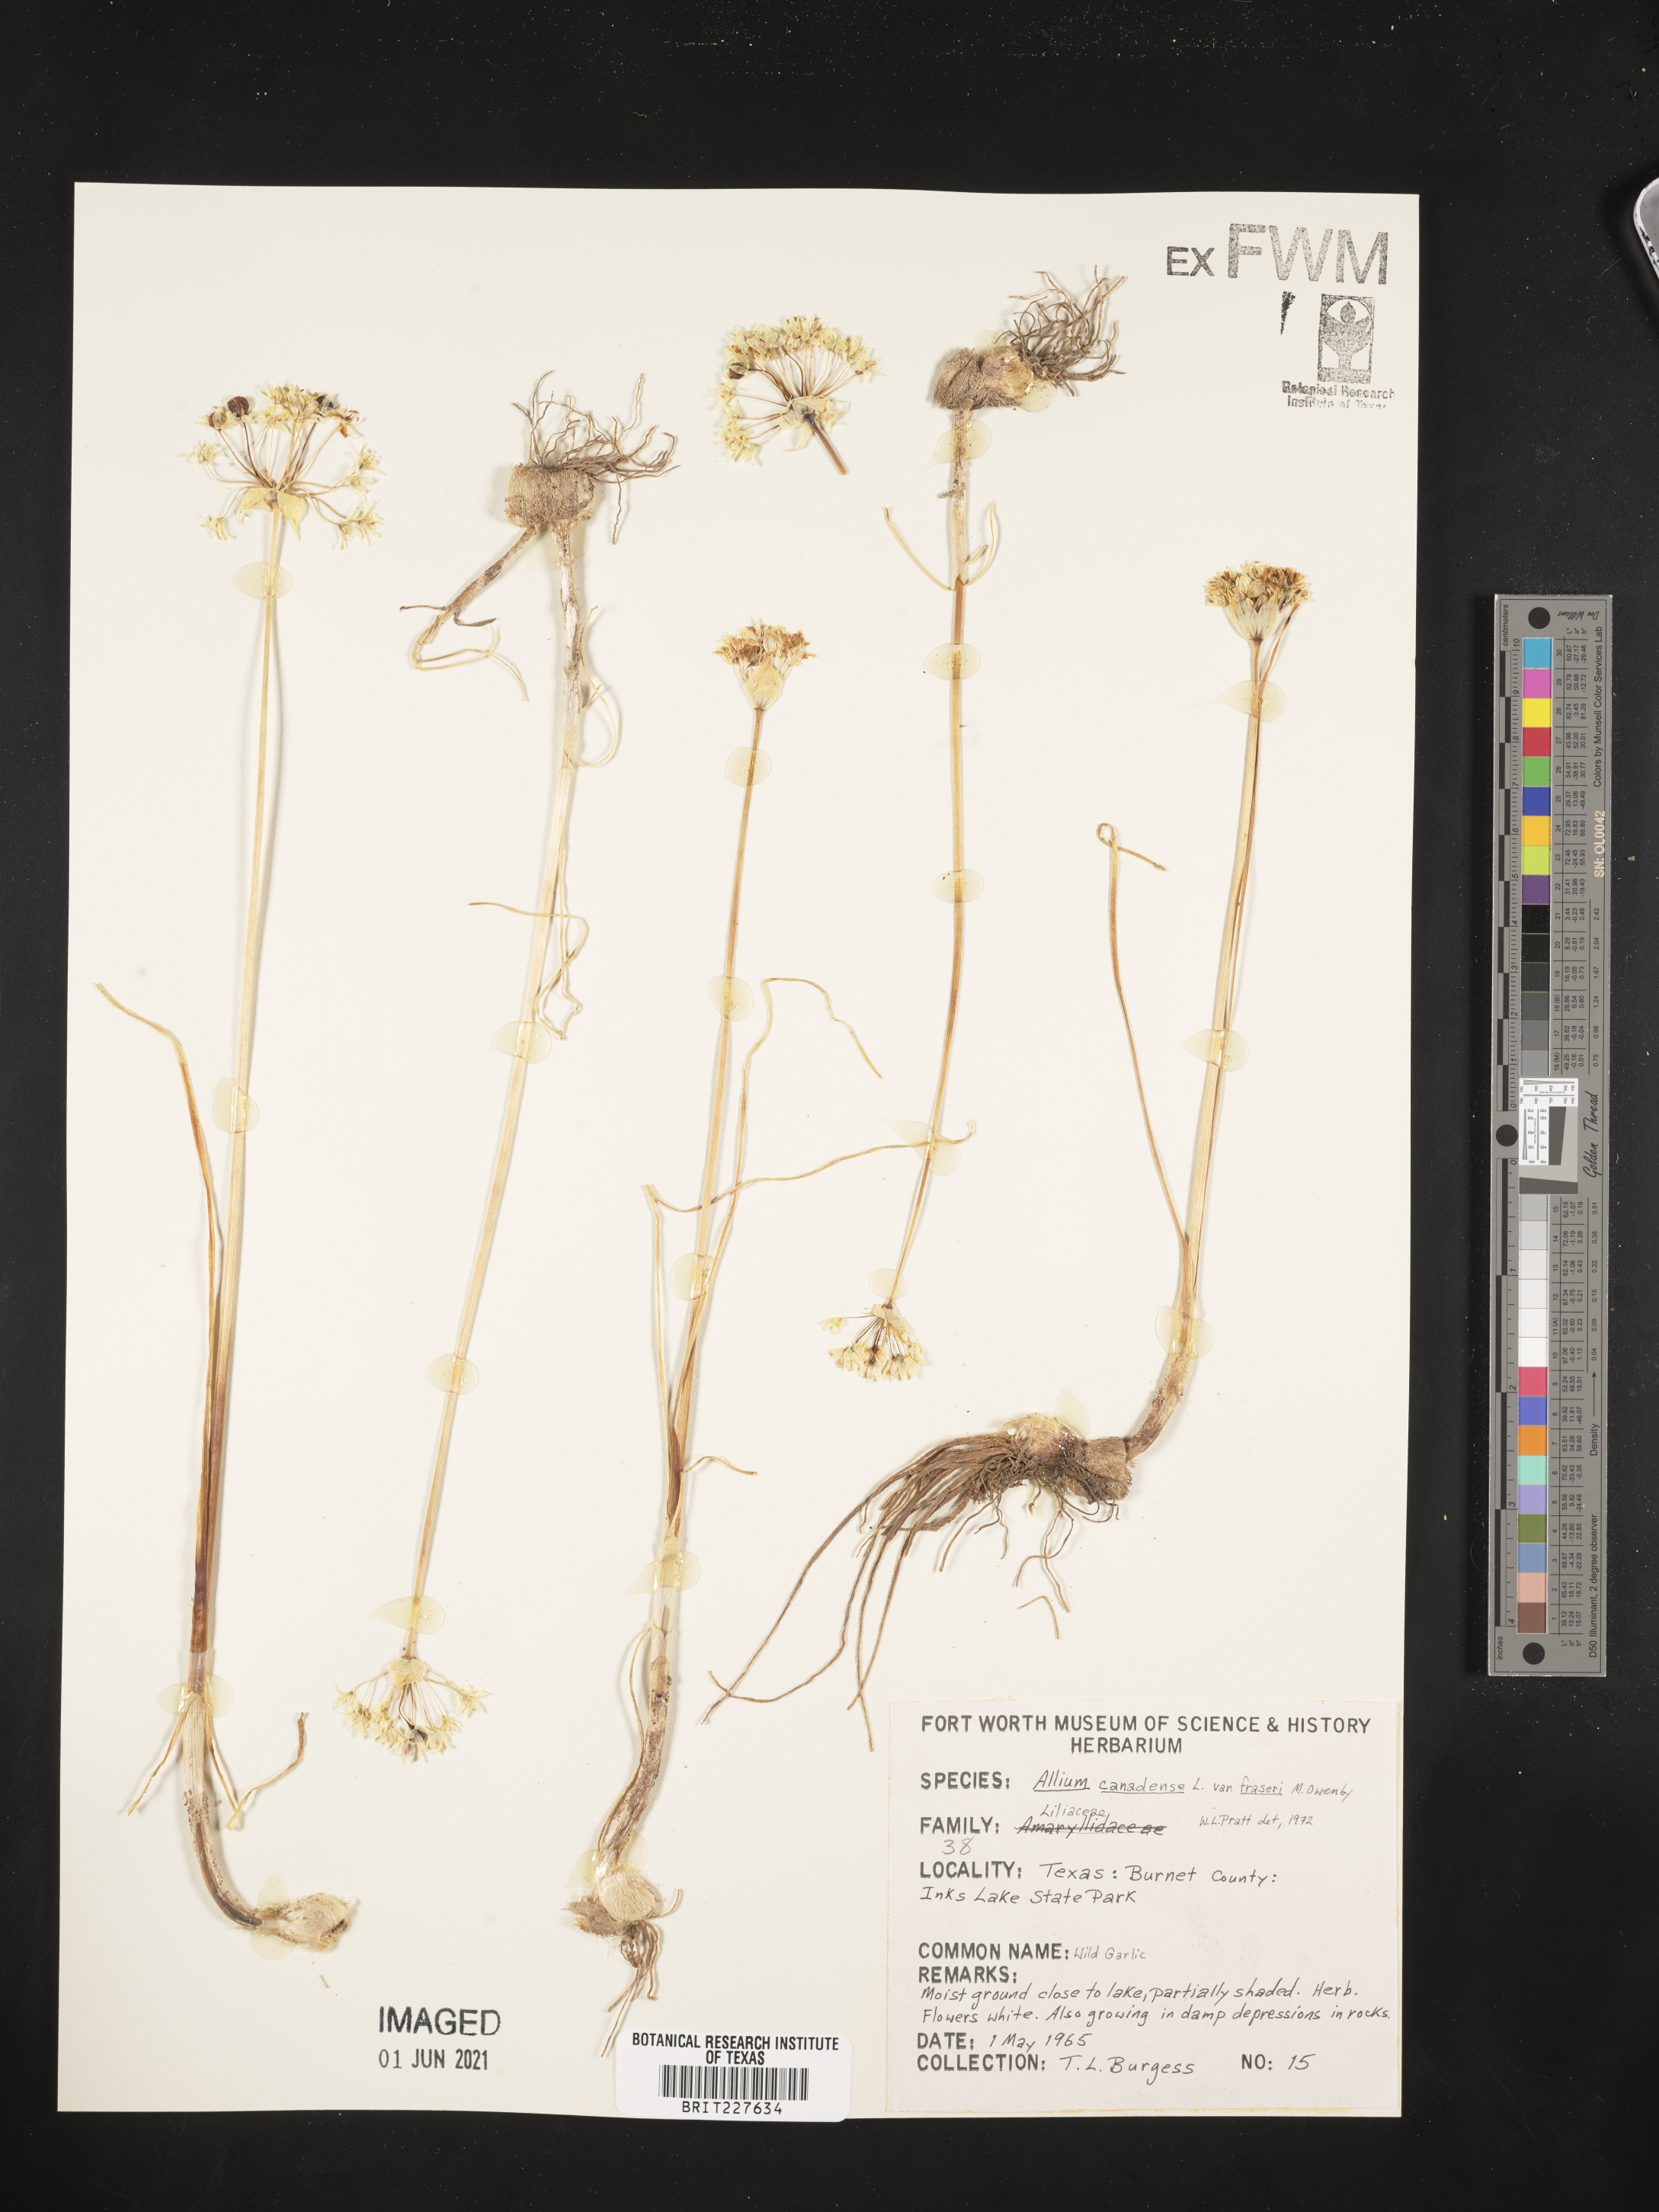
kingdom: Plantae
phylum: Tracheophyta
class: Liliopsida
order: Asparagales
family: Amaryllidaceae
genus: Allium
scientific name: Allium fraseri
